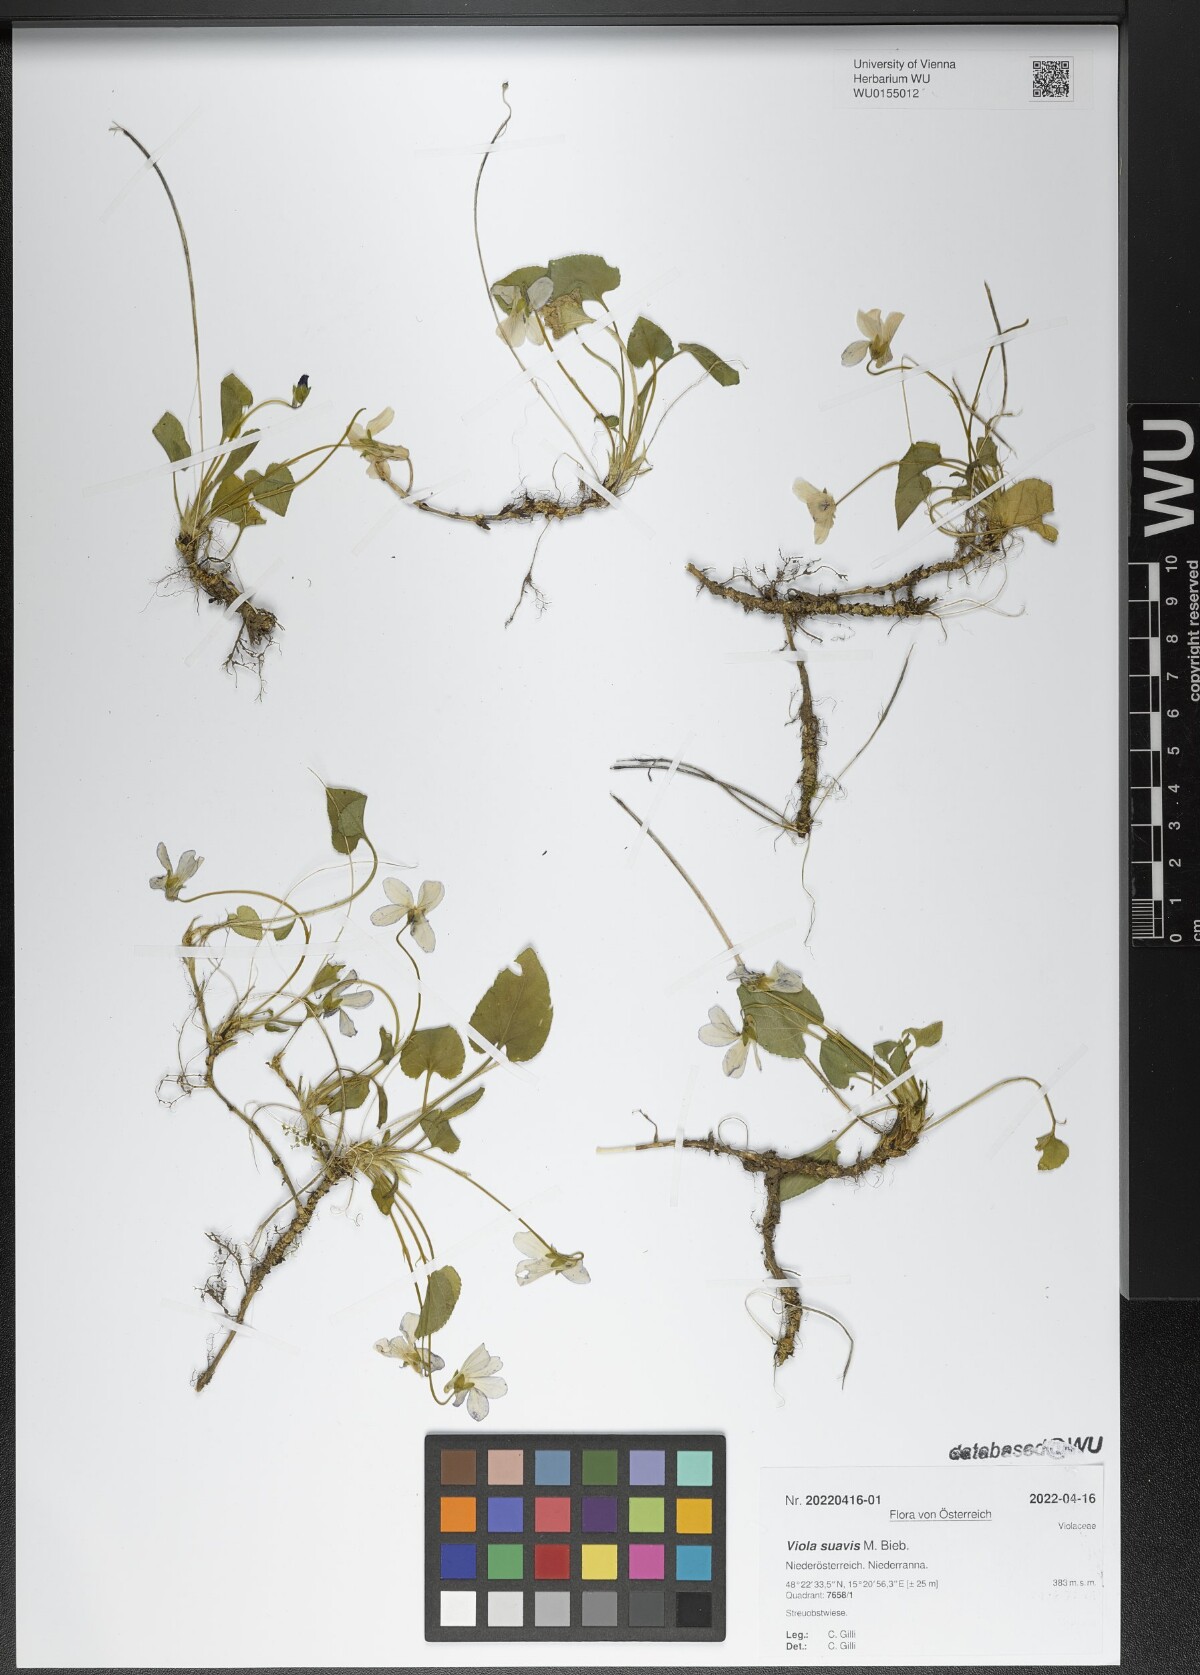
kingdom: Plantae
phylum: Tracheophyta
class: Magnoliopsida
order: Malpighiales
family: Violaceae
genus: Viola
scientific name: Viola suavis
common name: Russian violet
